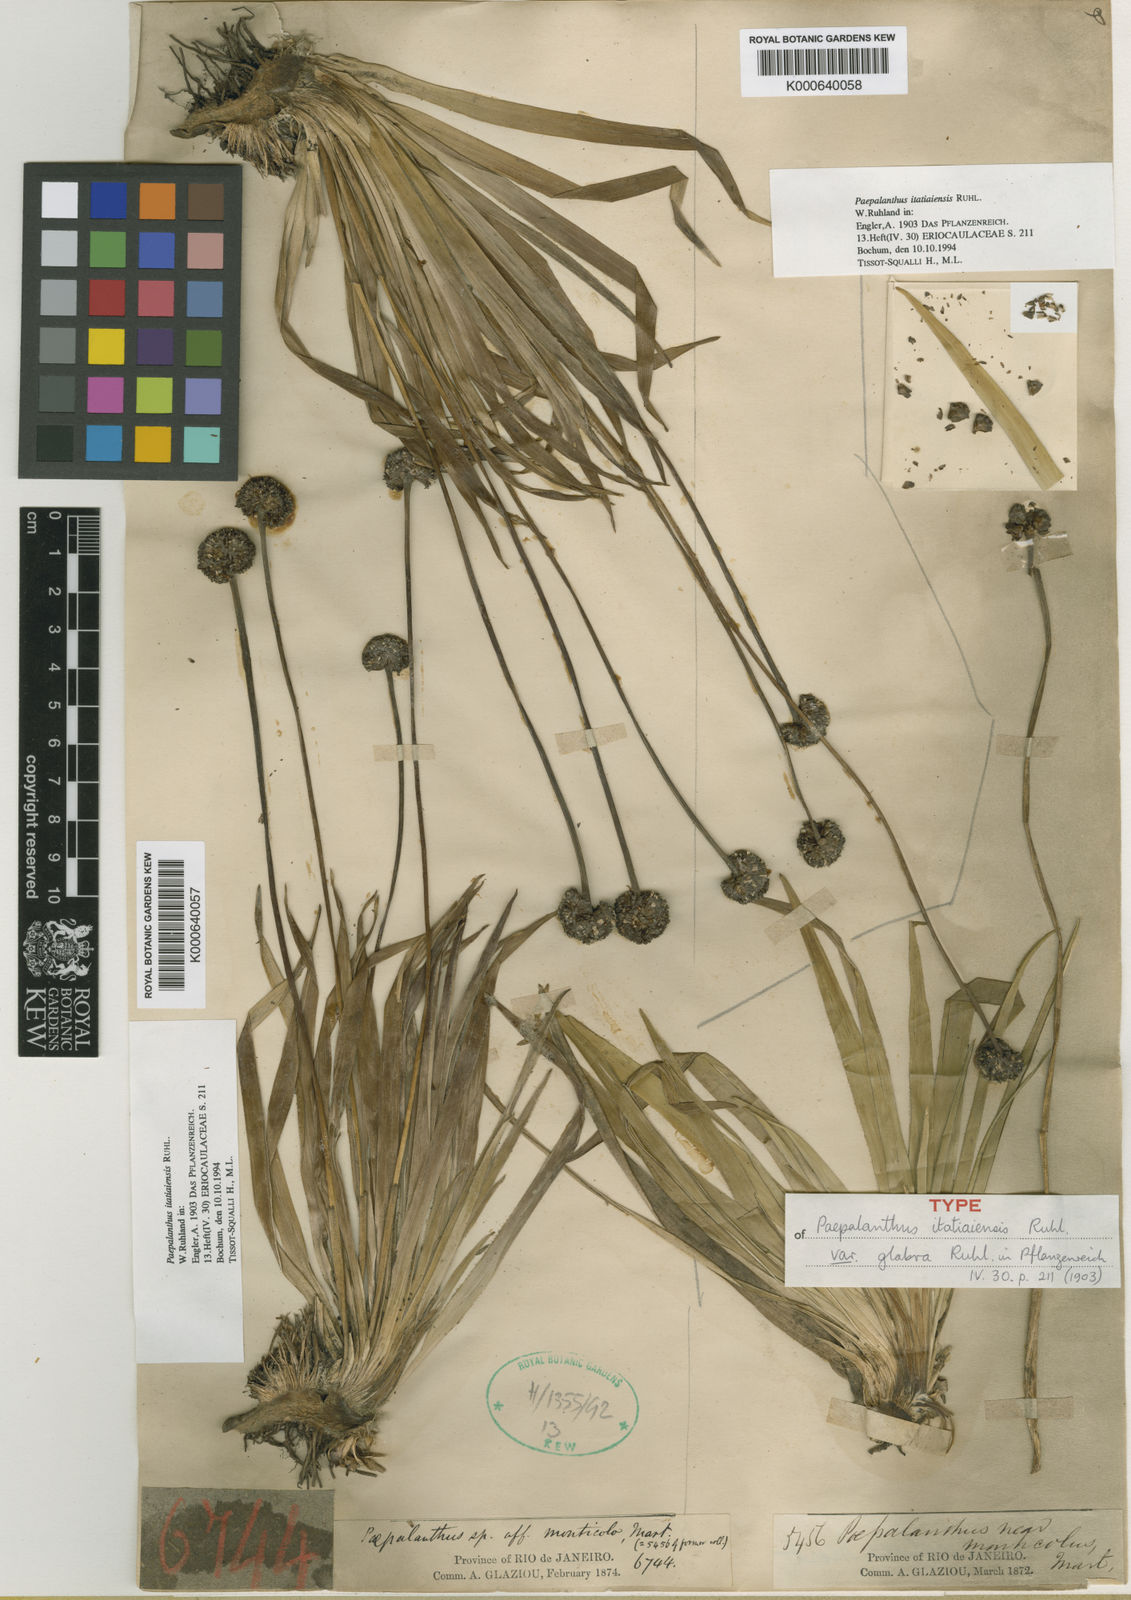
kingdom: Plantae
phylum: Tracheophyta
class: Liliopsida
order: Poales
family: Eriocaulaceae
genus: Paepalanthus
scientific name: Paepalanthus itatiaiensis
